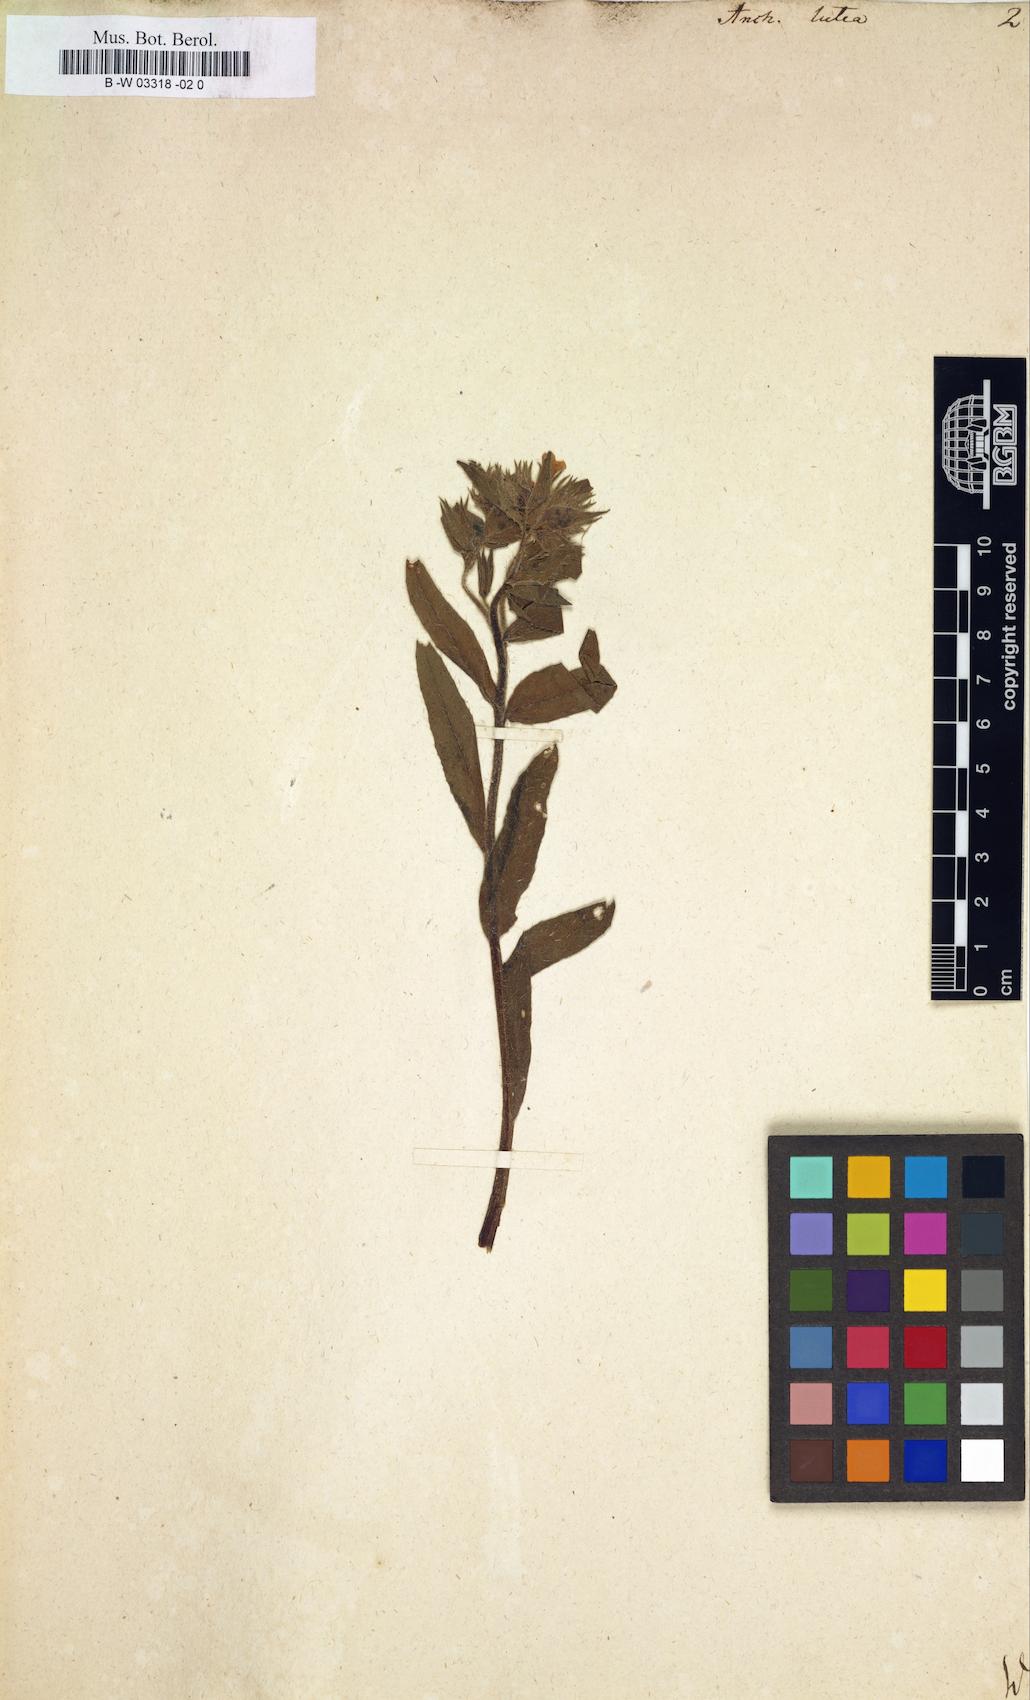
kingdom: Plantae
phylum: Tracheophyta
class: Magnoliopsida
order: Boraginales
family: Boraginaceae
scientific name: Boraginaceae
